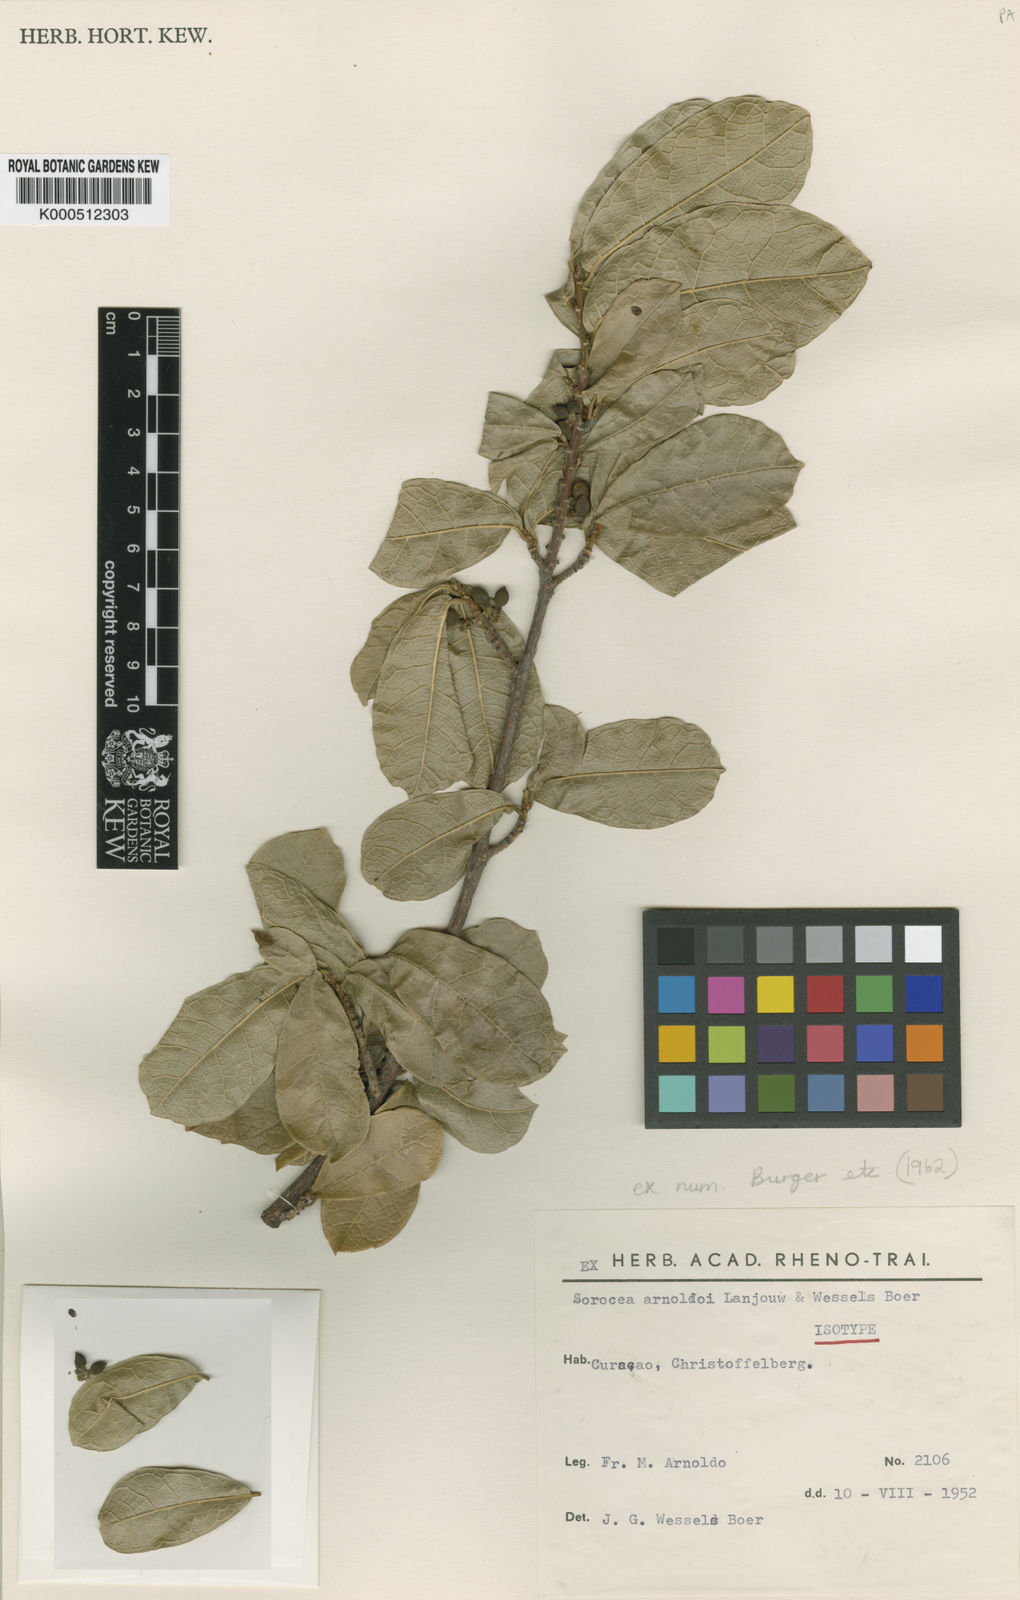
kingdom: Plantae
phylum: Tracheophyta
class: Magnoliopsida
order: Rosales
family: Moraceae
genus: Sorocea
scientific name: Sorocea sprucei
